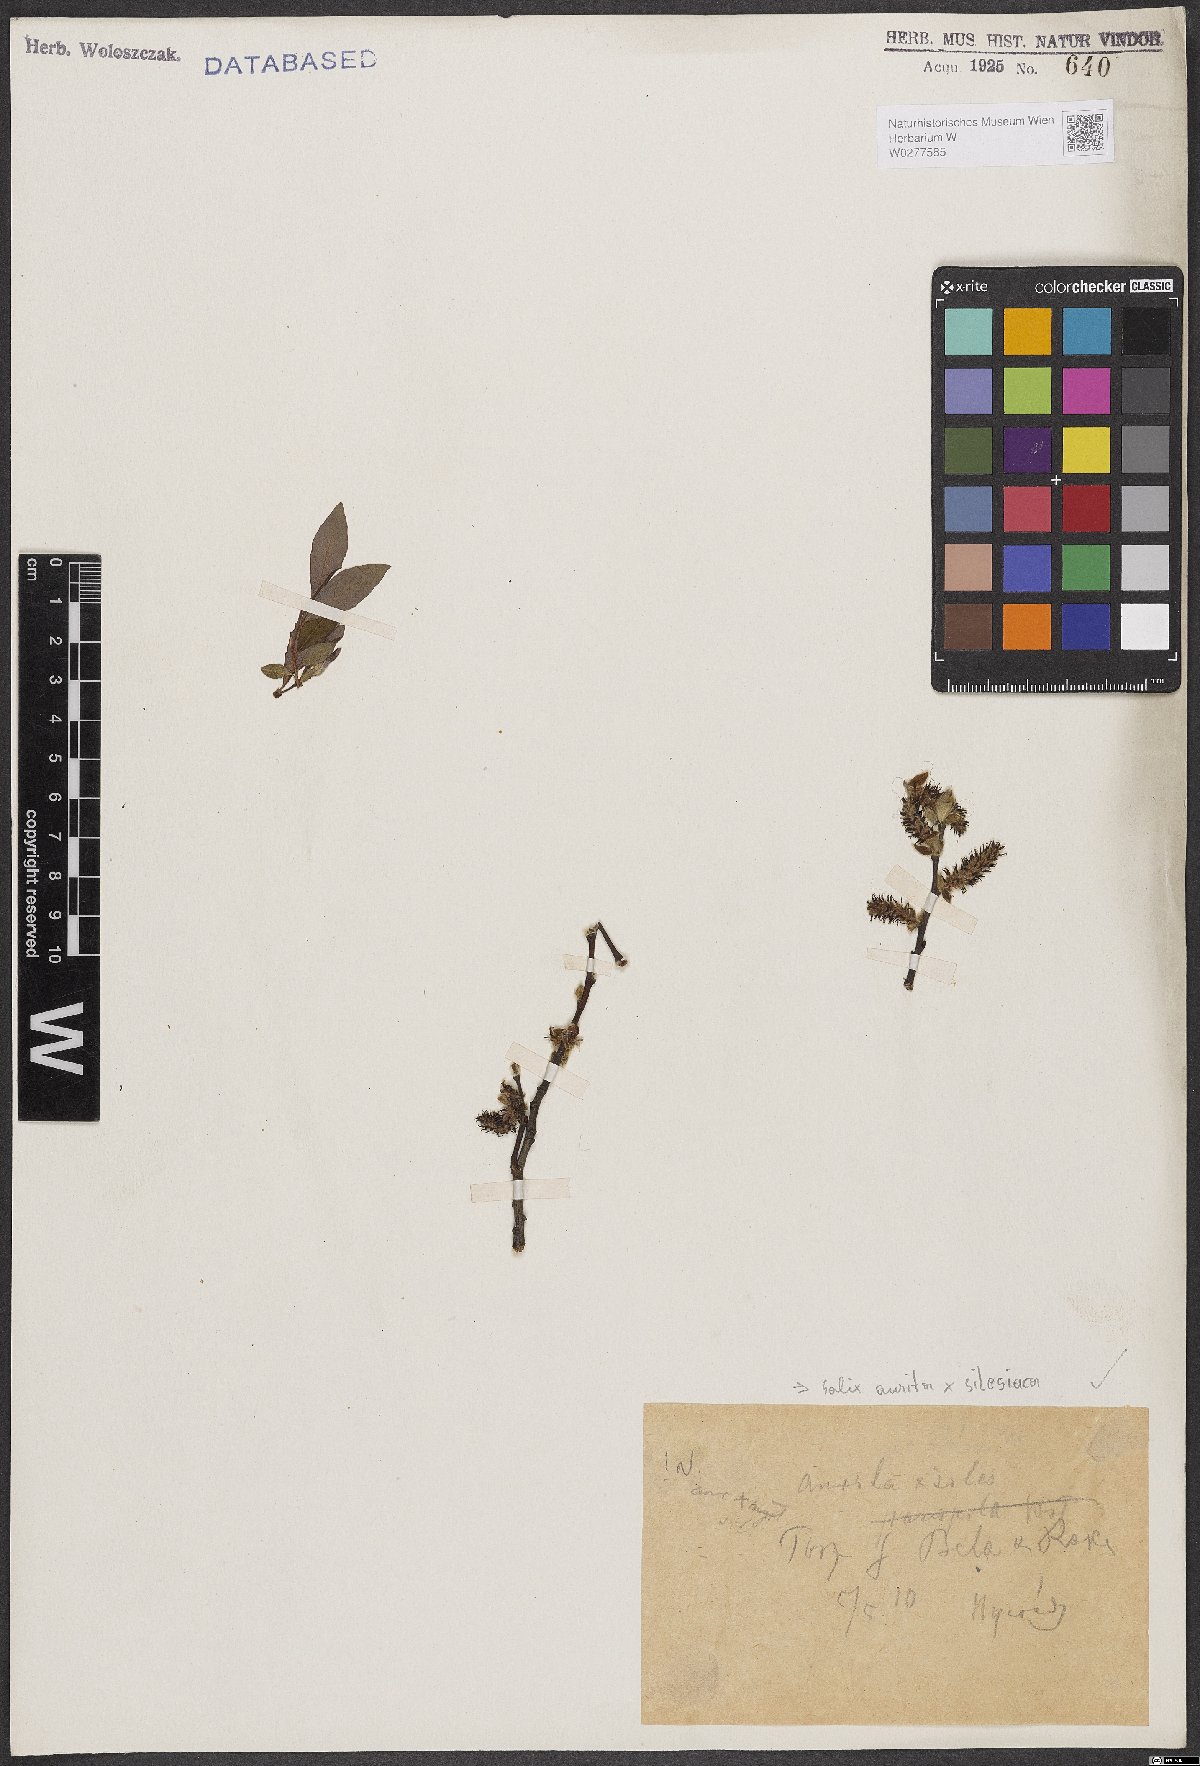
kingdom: Plantae
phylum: Tracheophyta
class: Magnoliopsida
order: Malpighiales
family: Salicaceae
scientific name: Salicaceae
